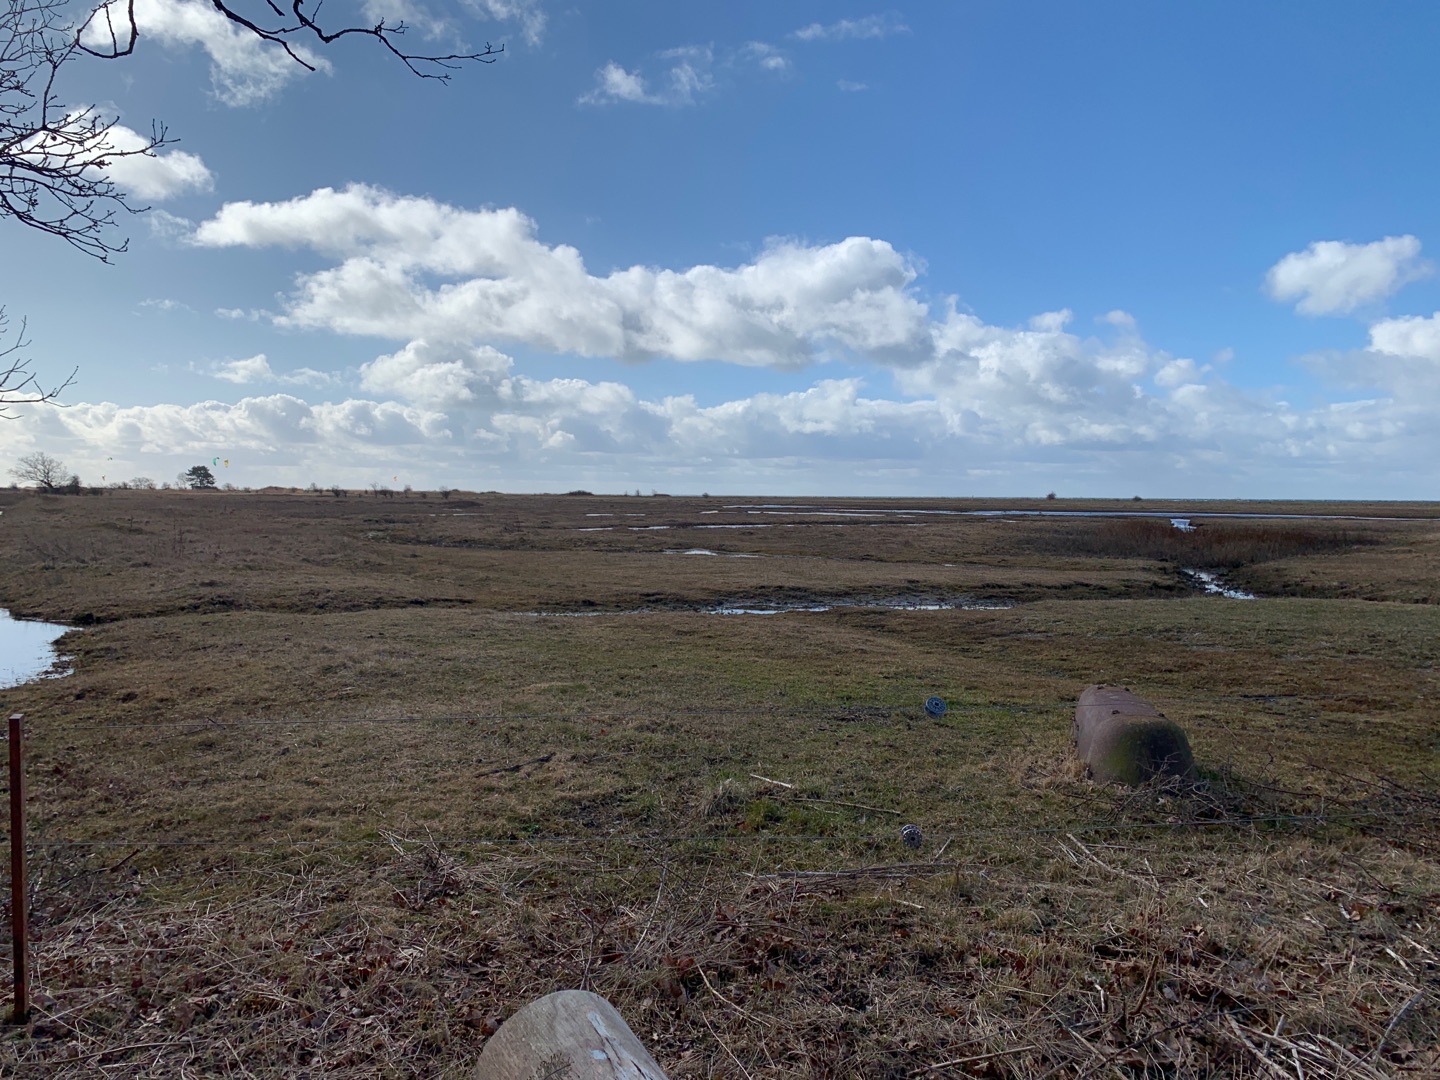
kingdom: Animalia
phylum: Chordata
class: Aves
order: Charadriiformes
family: Charadriidae
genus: Vanellus
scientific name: Vanellus vanellus
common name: Vibe
